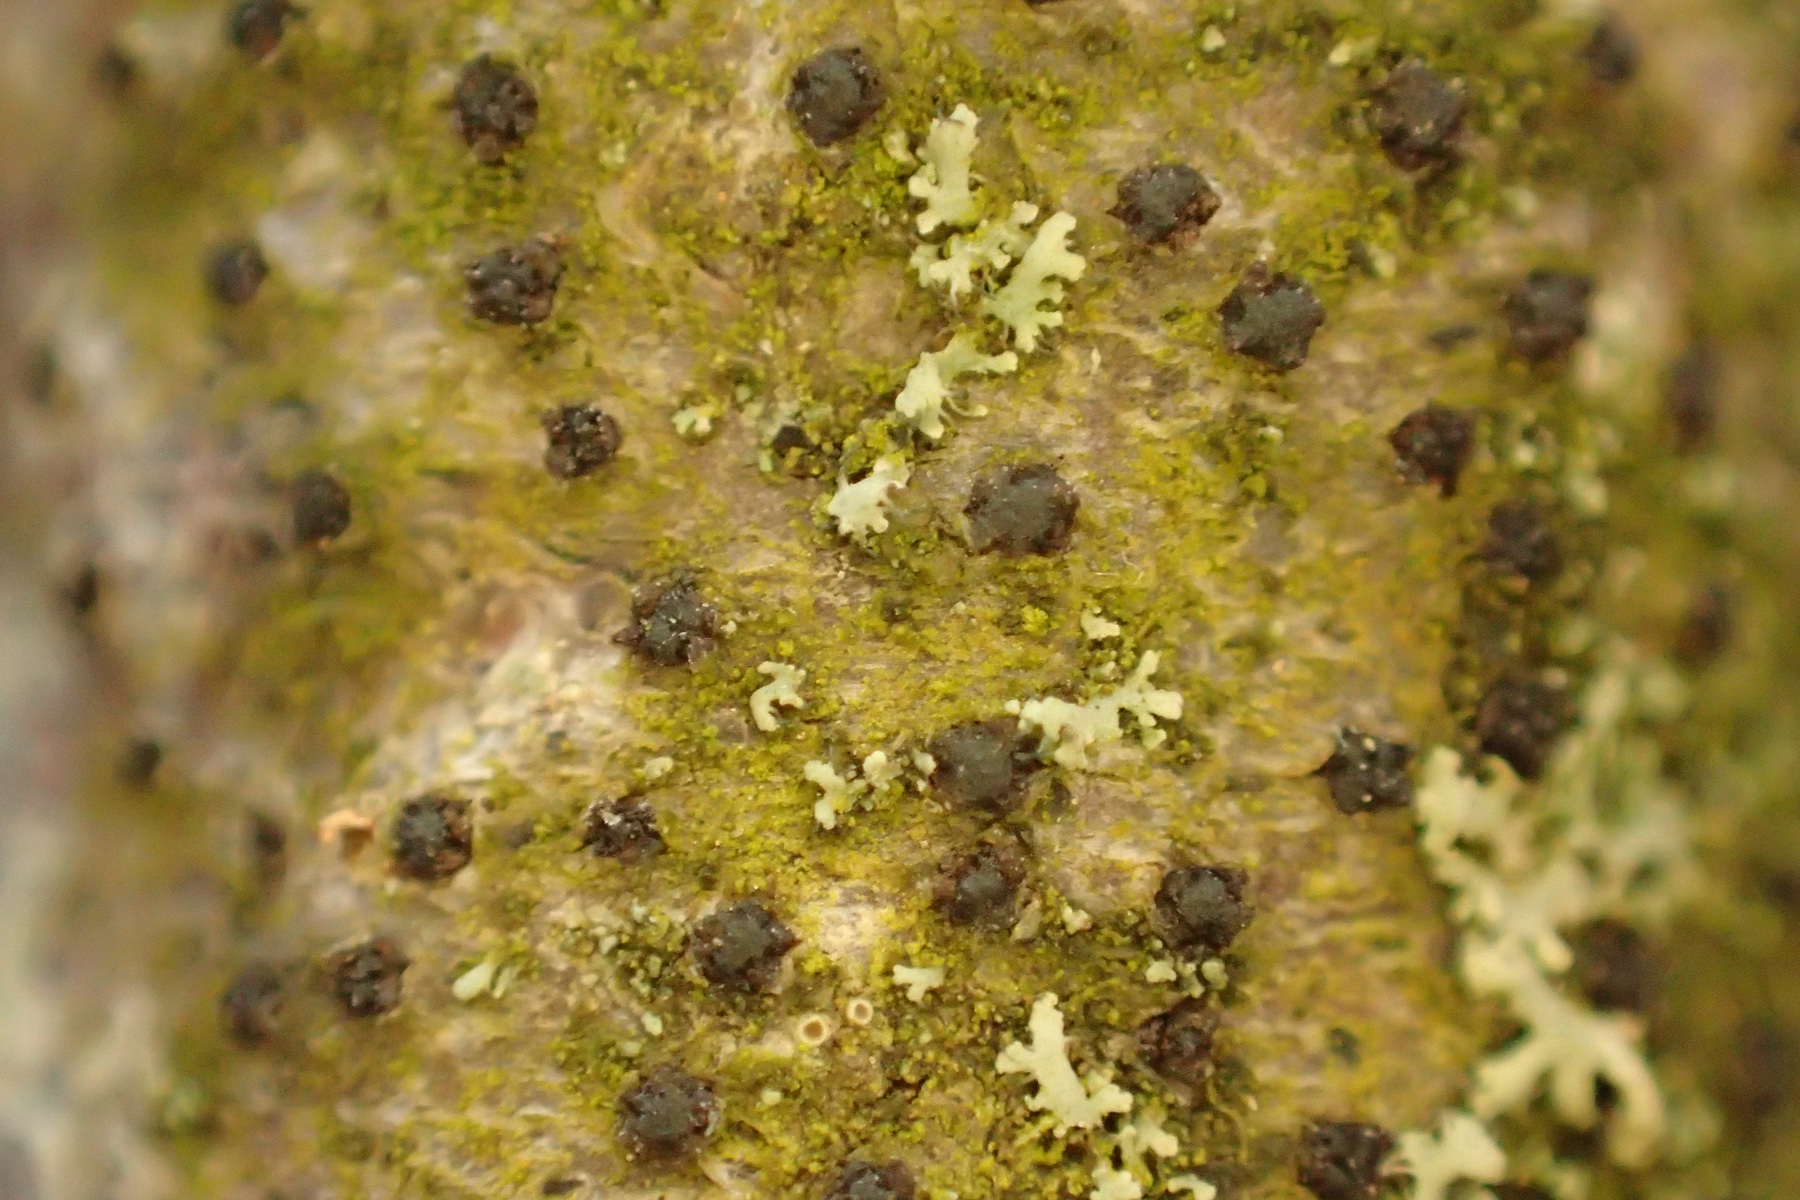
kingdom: Fungi
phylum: Ascomycota
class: Sordariomycetes
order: Xylariales
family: Diatrypaceae
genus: Eutypella
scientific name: Eutypella quaternata
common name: bøge-korsprik
